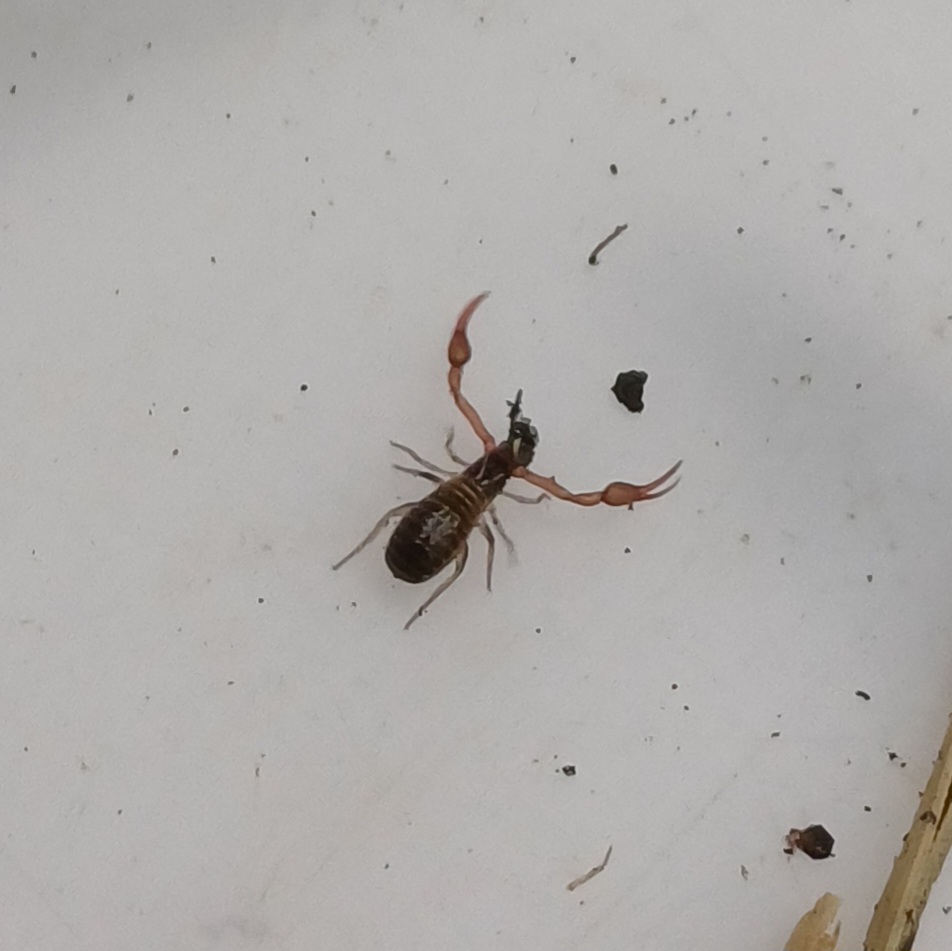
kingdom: Animalia
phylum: Arthropoda
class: Arachnida
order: Pseudoscorpiones
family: Neobisiidae
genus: Neobisium
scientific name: Neobisium carcinoides
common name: Almindelig mosskorpion
